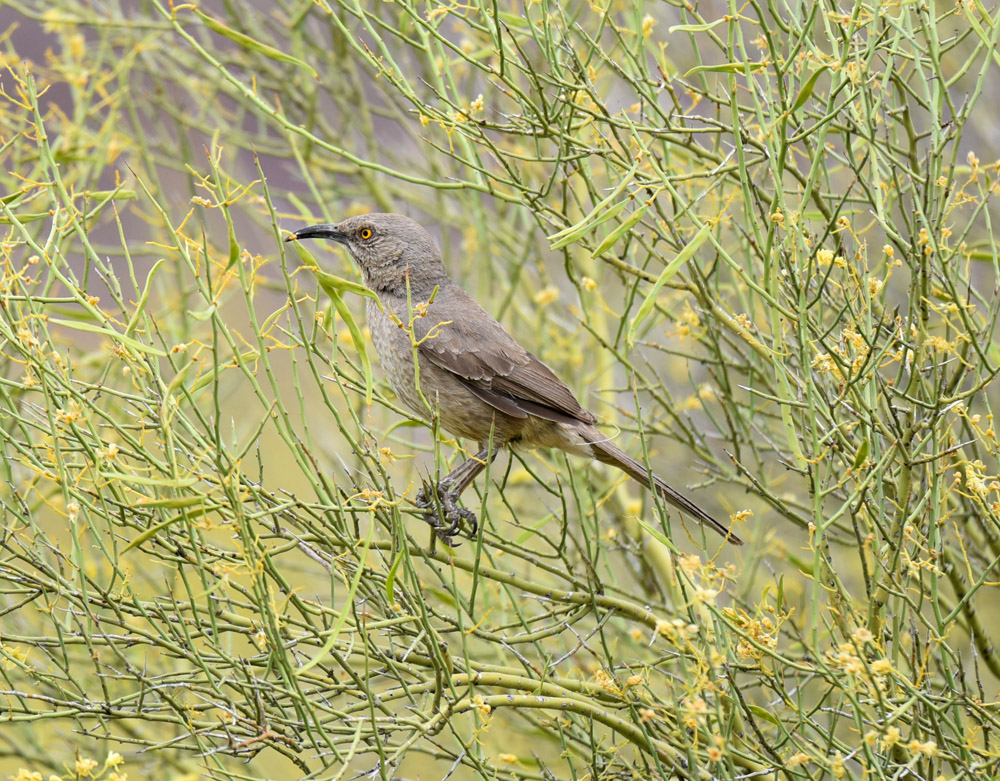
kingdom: Animalia
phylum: Chordata
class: Aves
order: Passeriformes
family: Mimidae
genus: Toxostoma
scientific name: Toxostoma curvirostre
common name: Curve-billed thrasher
